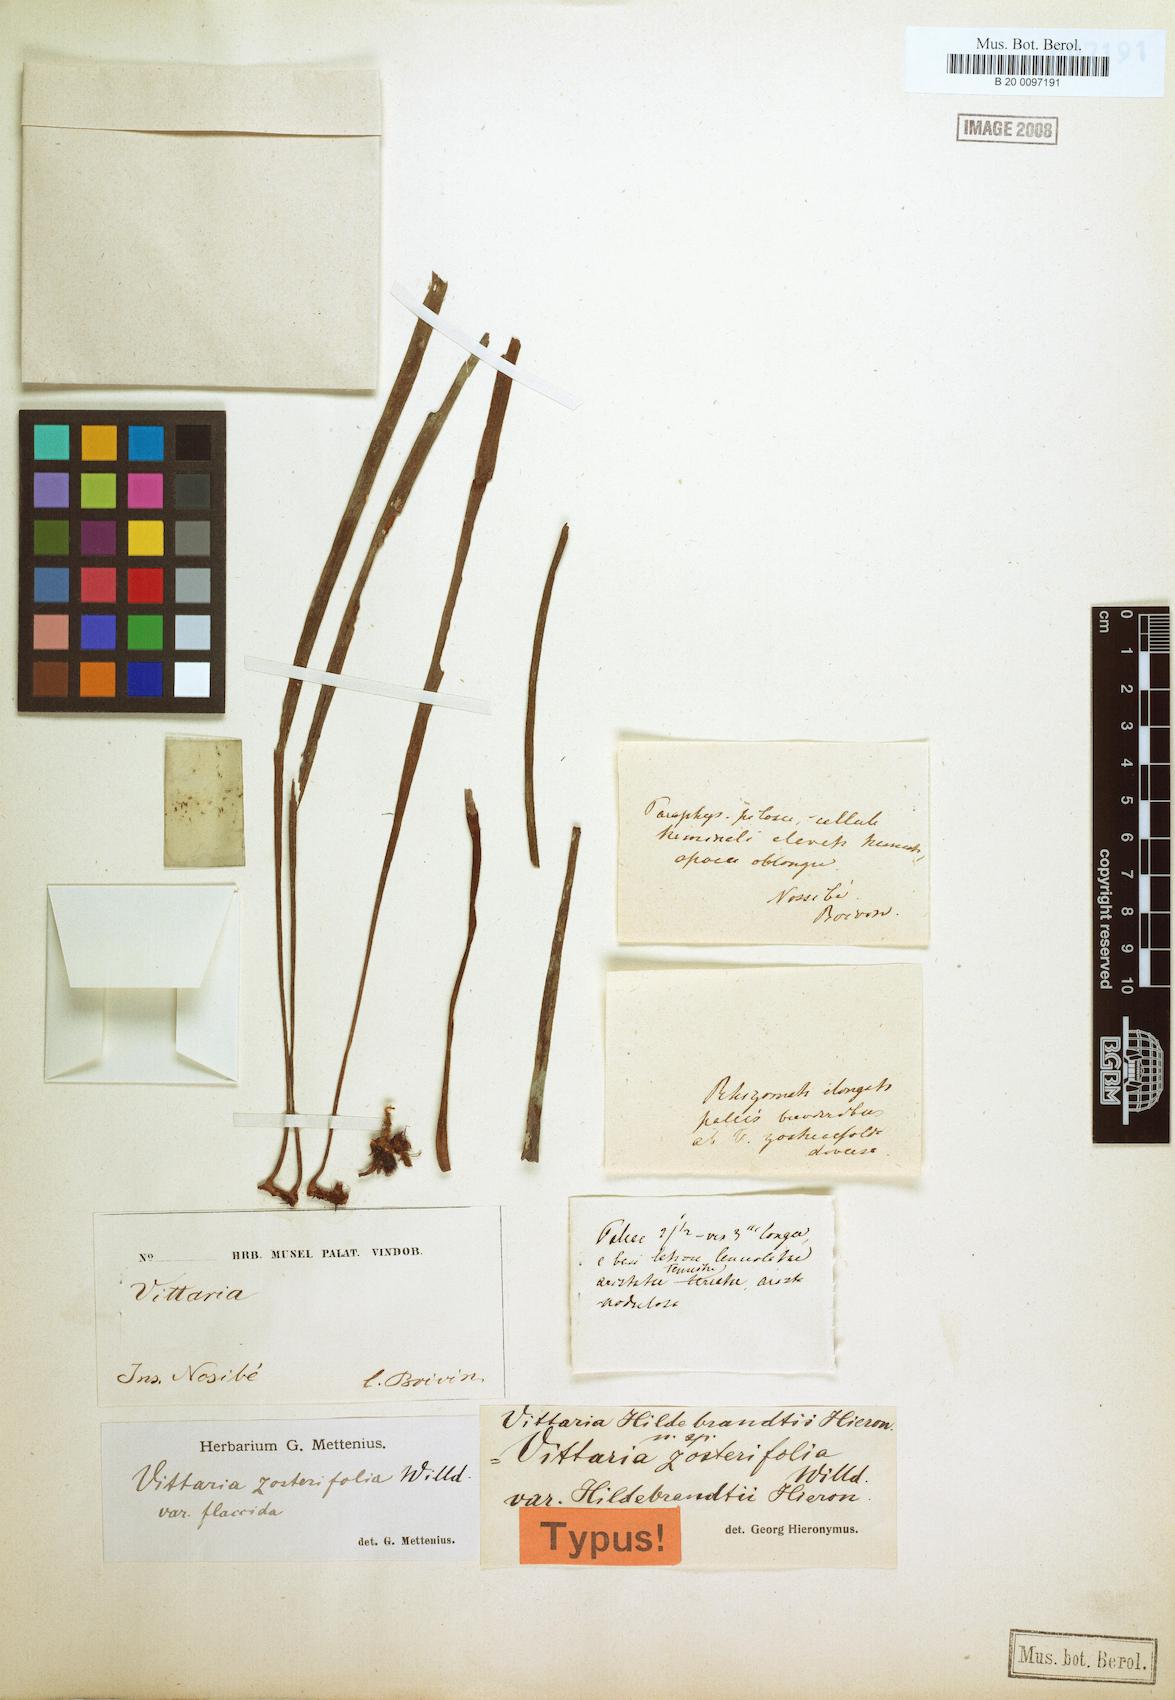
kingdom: Plantae
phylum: Tracheophyta
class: Polypodiopsida
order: Polypodiales
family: Pteridaceae
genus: Haplopteris
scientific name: Haplopteris elongata
